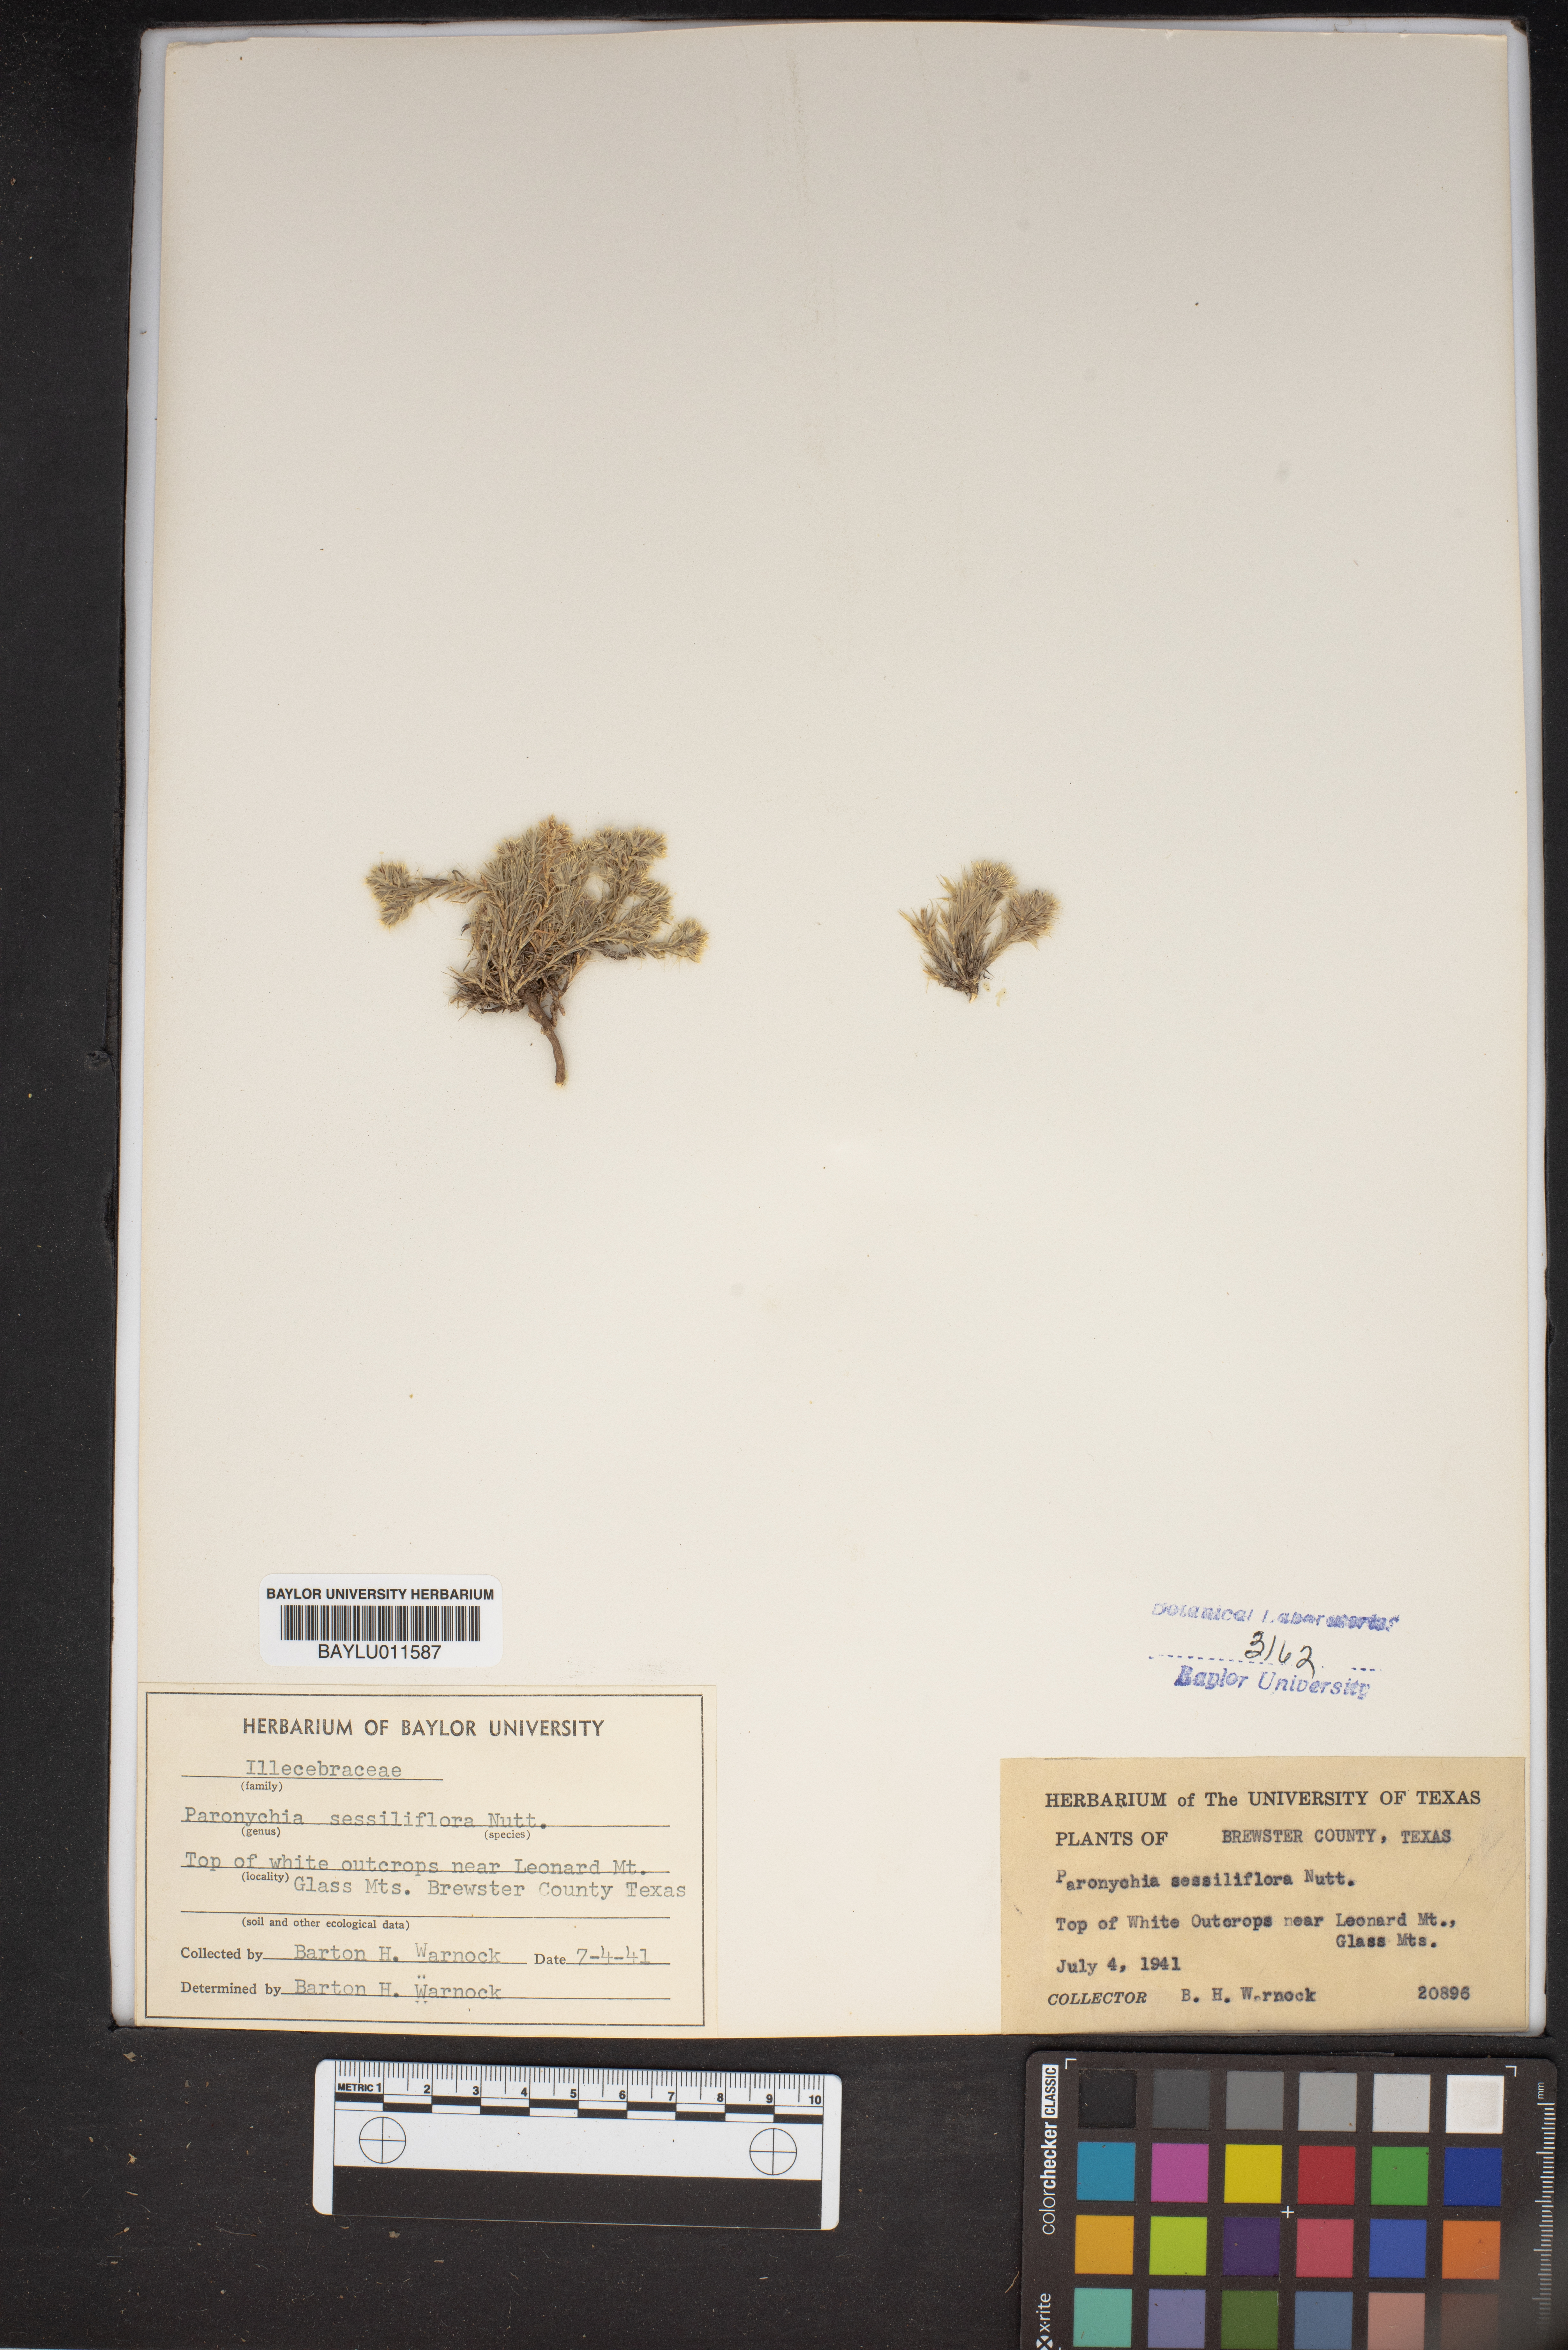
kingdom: Plantae
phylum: Tracheophyta
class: Magnoliopsida
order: Caryophyllales
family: Caryophyllaceae
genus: Paronychia
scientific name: Paronychia sessiliflora
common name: Creeping nailwort
